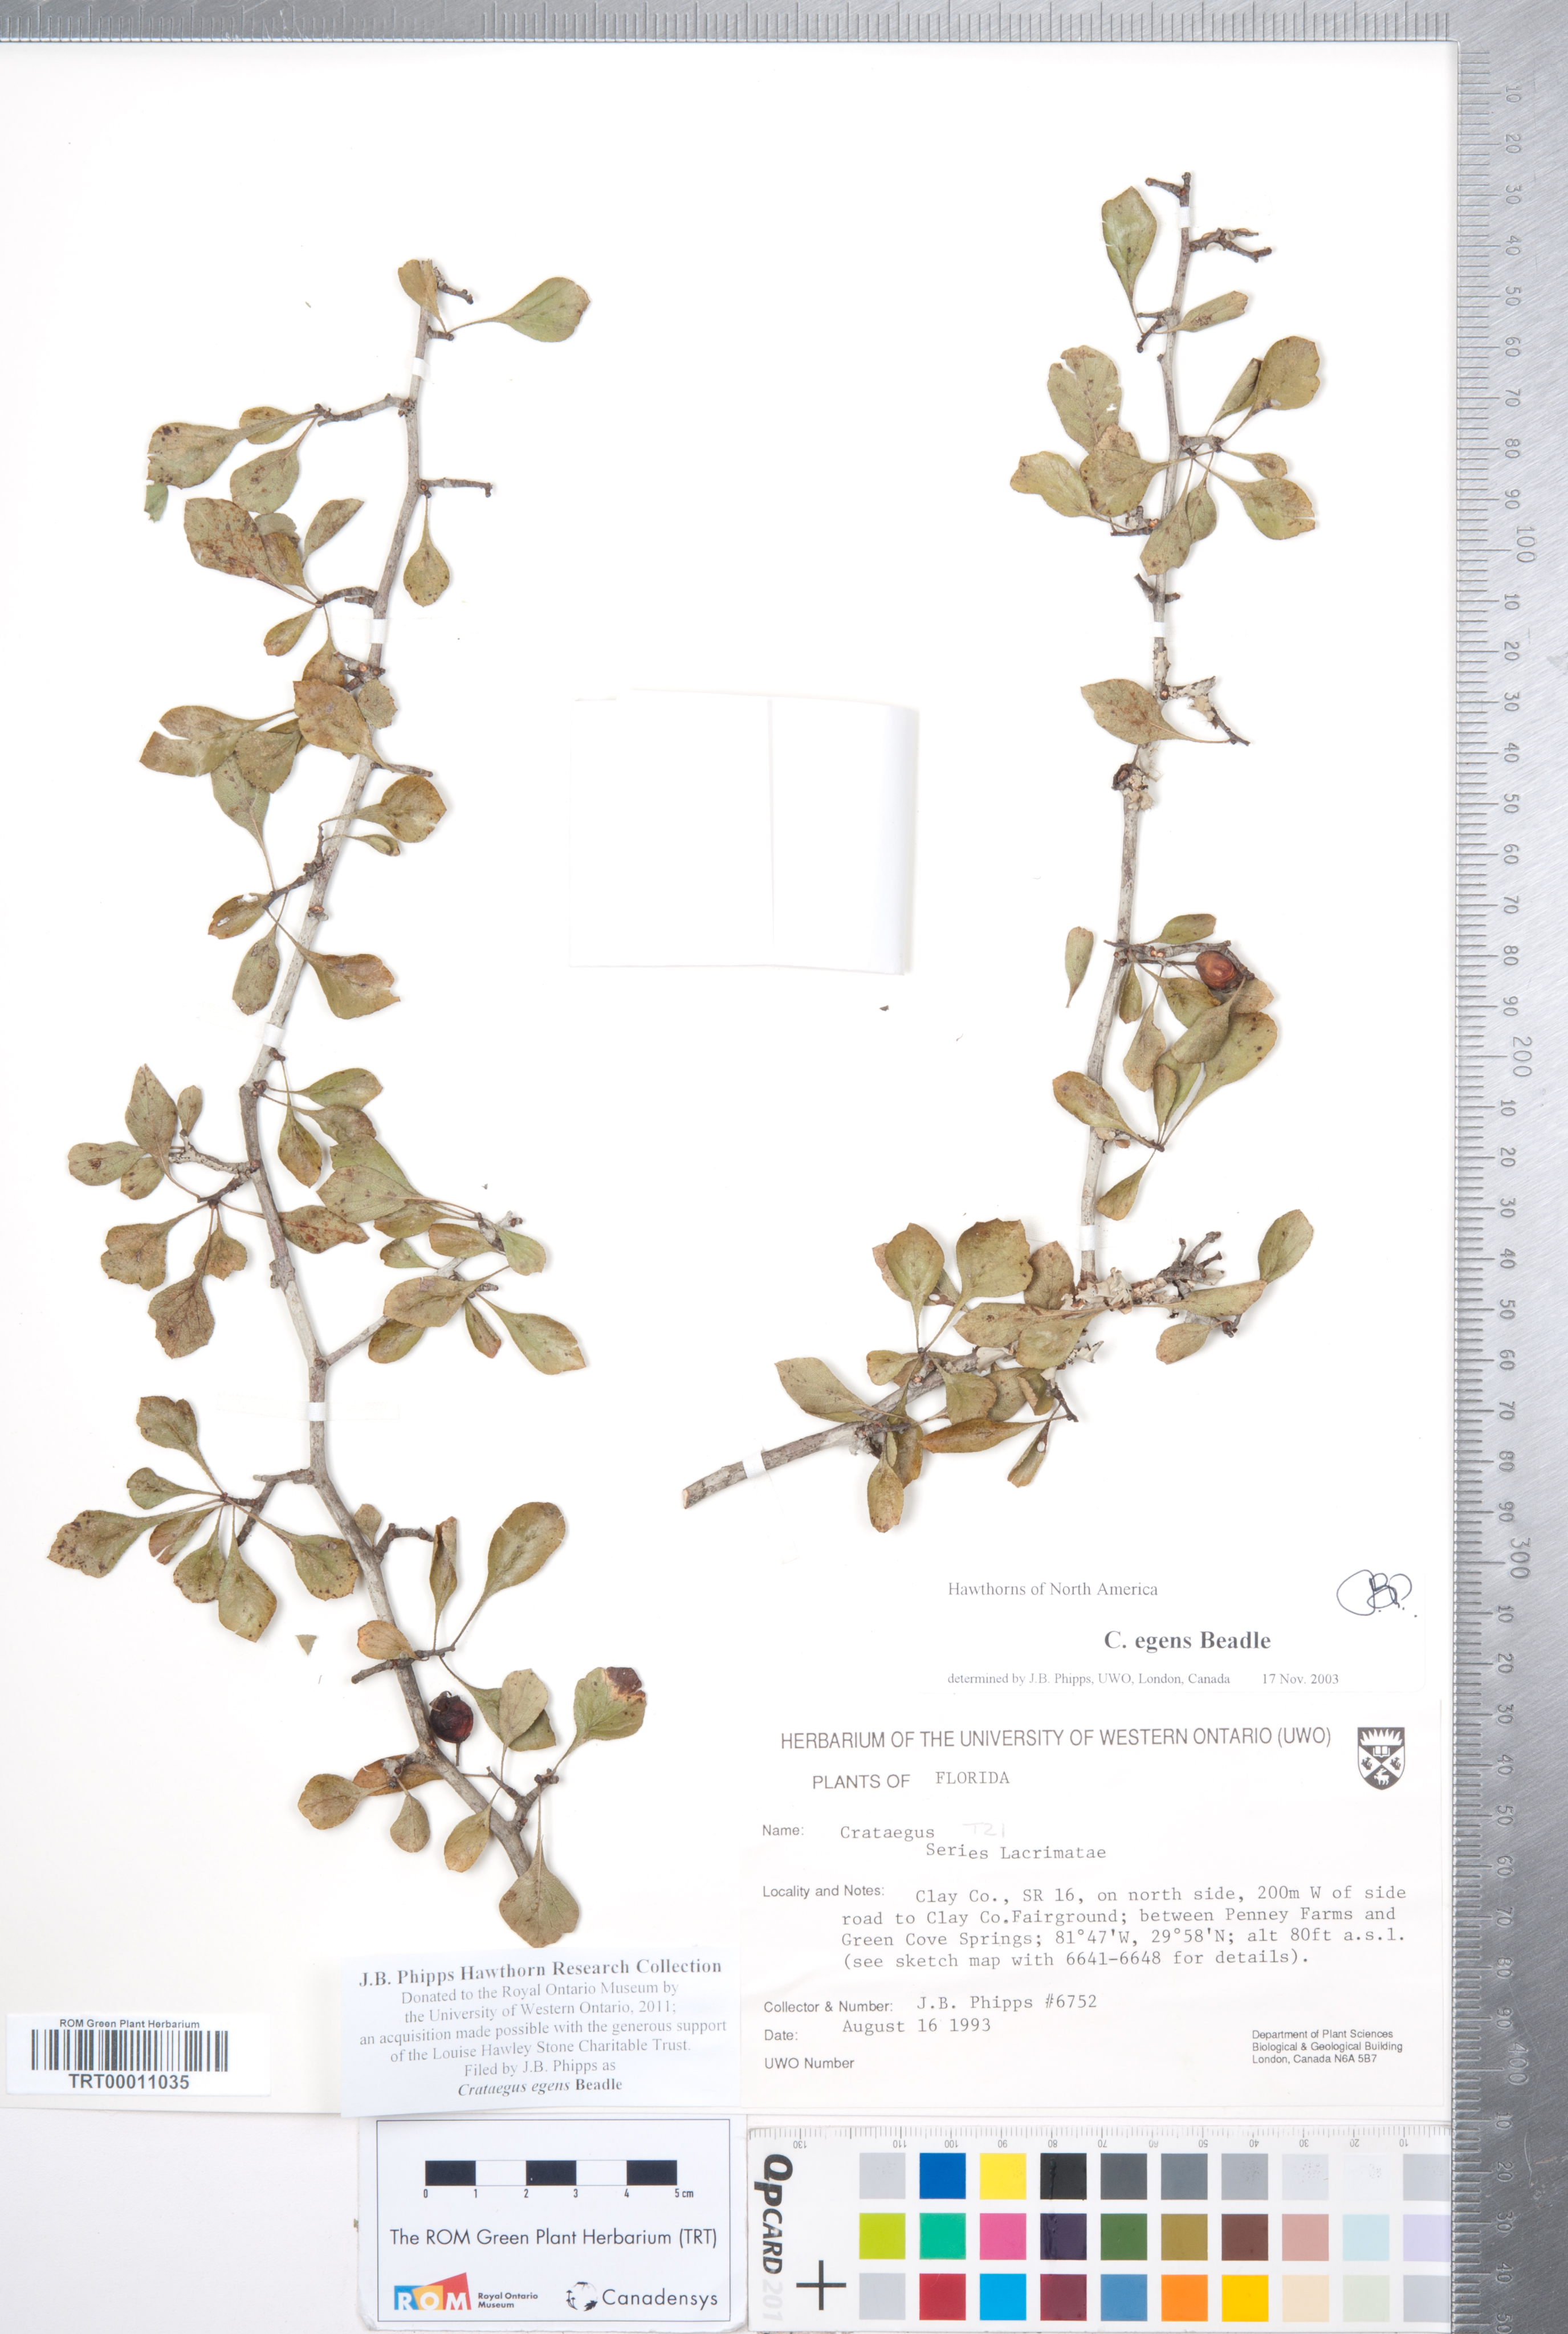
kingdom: Plantae
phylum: Tracheophyta
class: Magnoliopsida
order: Rosales
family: Rosaceae
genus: Crataegus
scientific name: Crataegus senta
